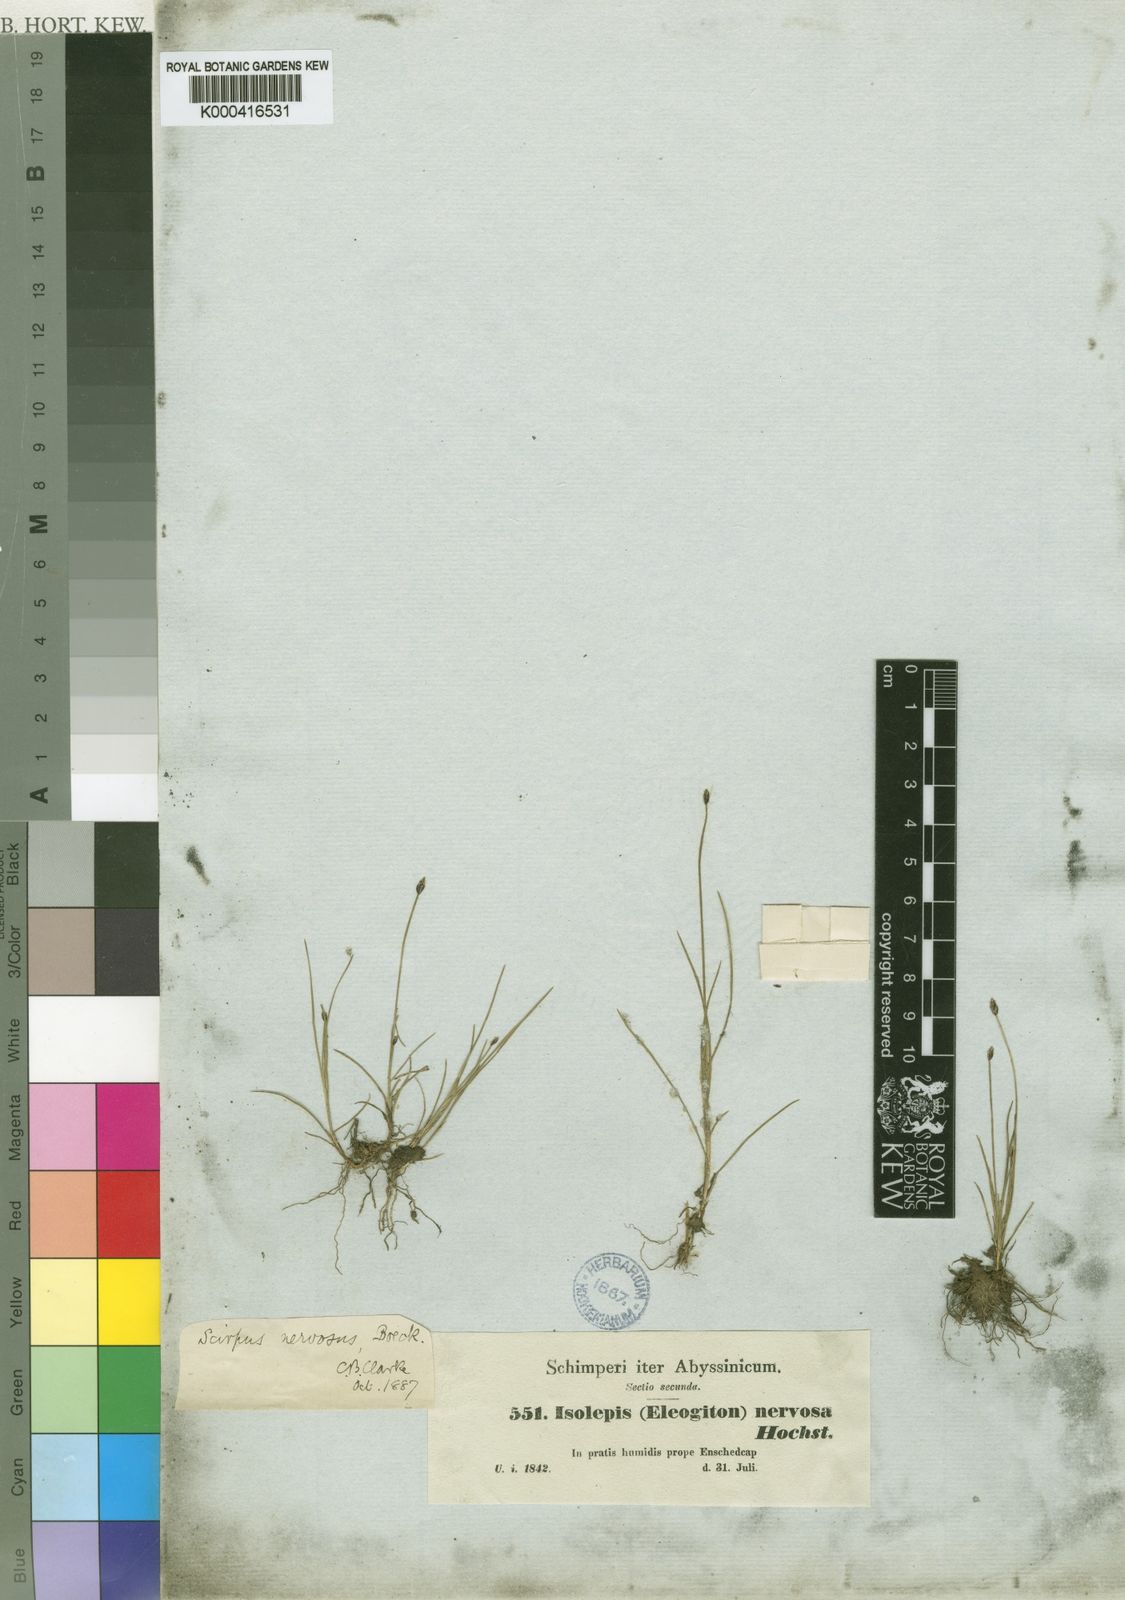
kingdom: Plantae
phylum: Tracheophyta
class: Liliopsida
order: Poales
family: Cyperaceae
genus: Isolepis
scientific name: Isolepis fluitans
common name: Floating club-rush
